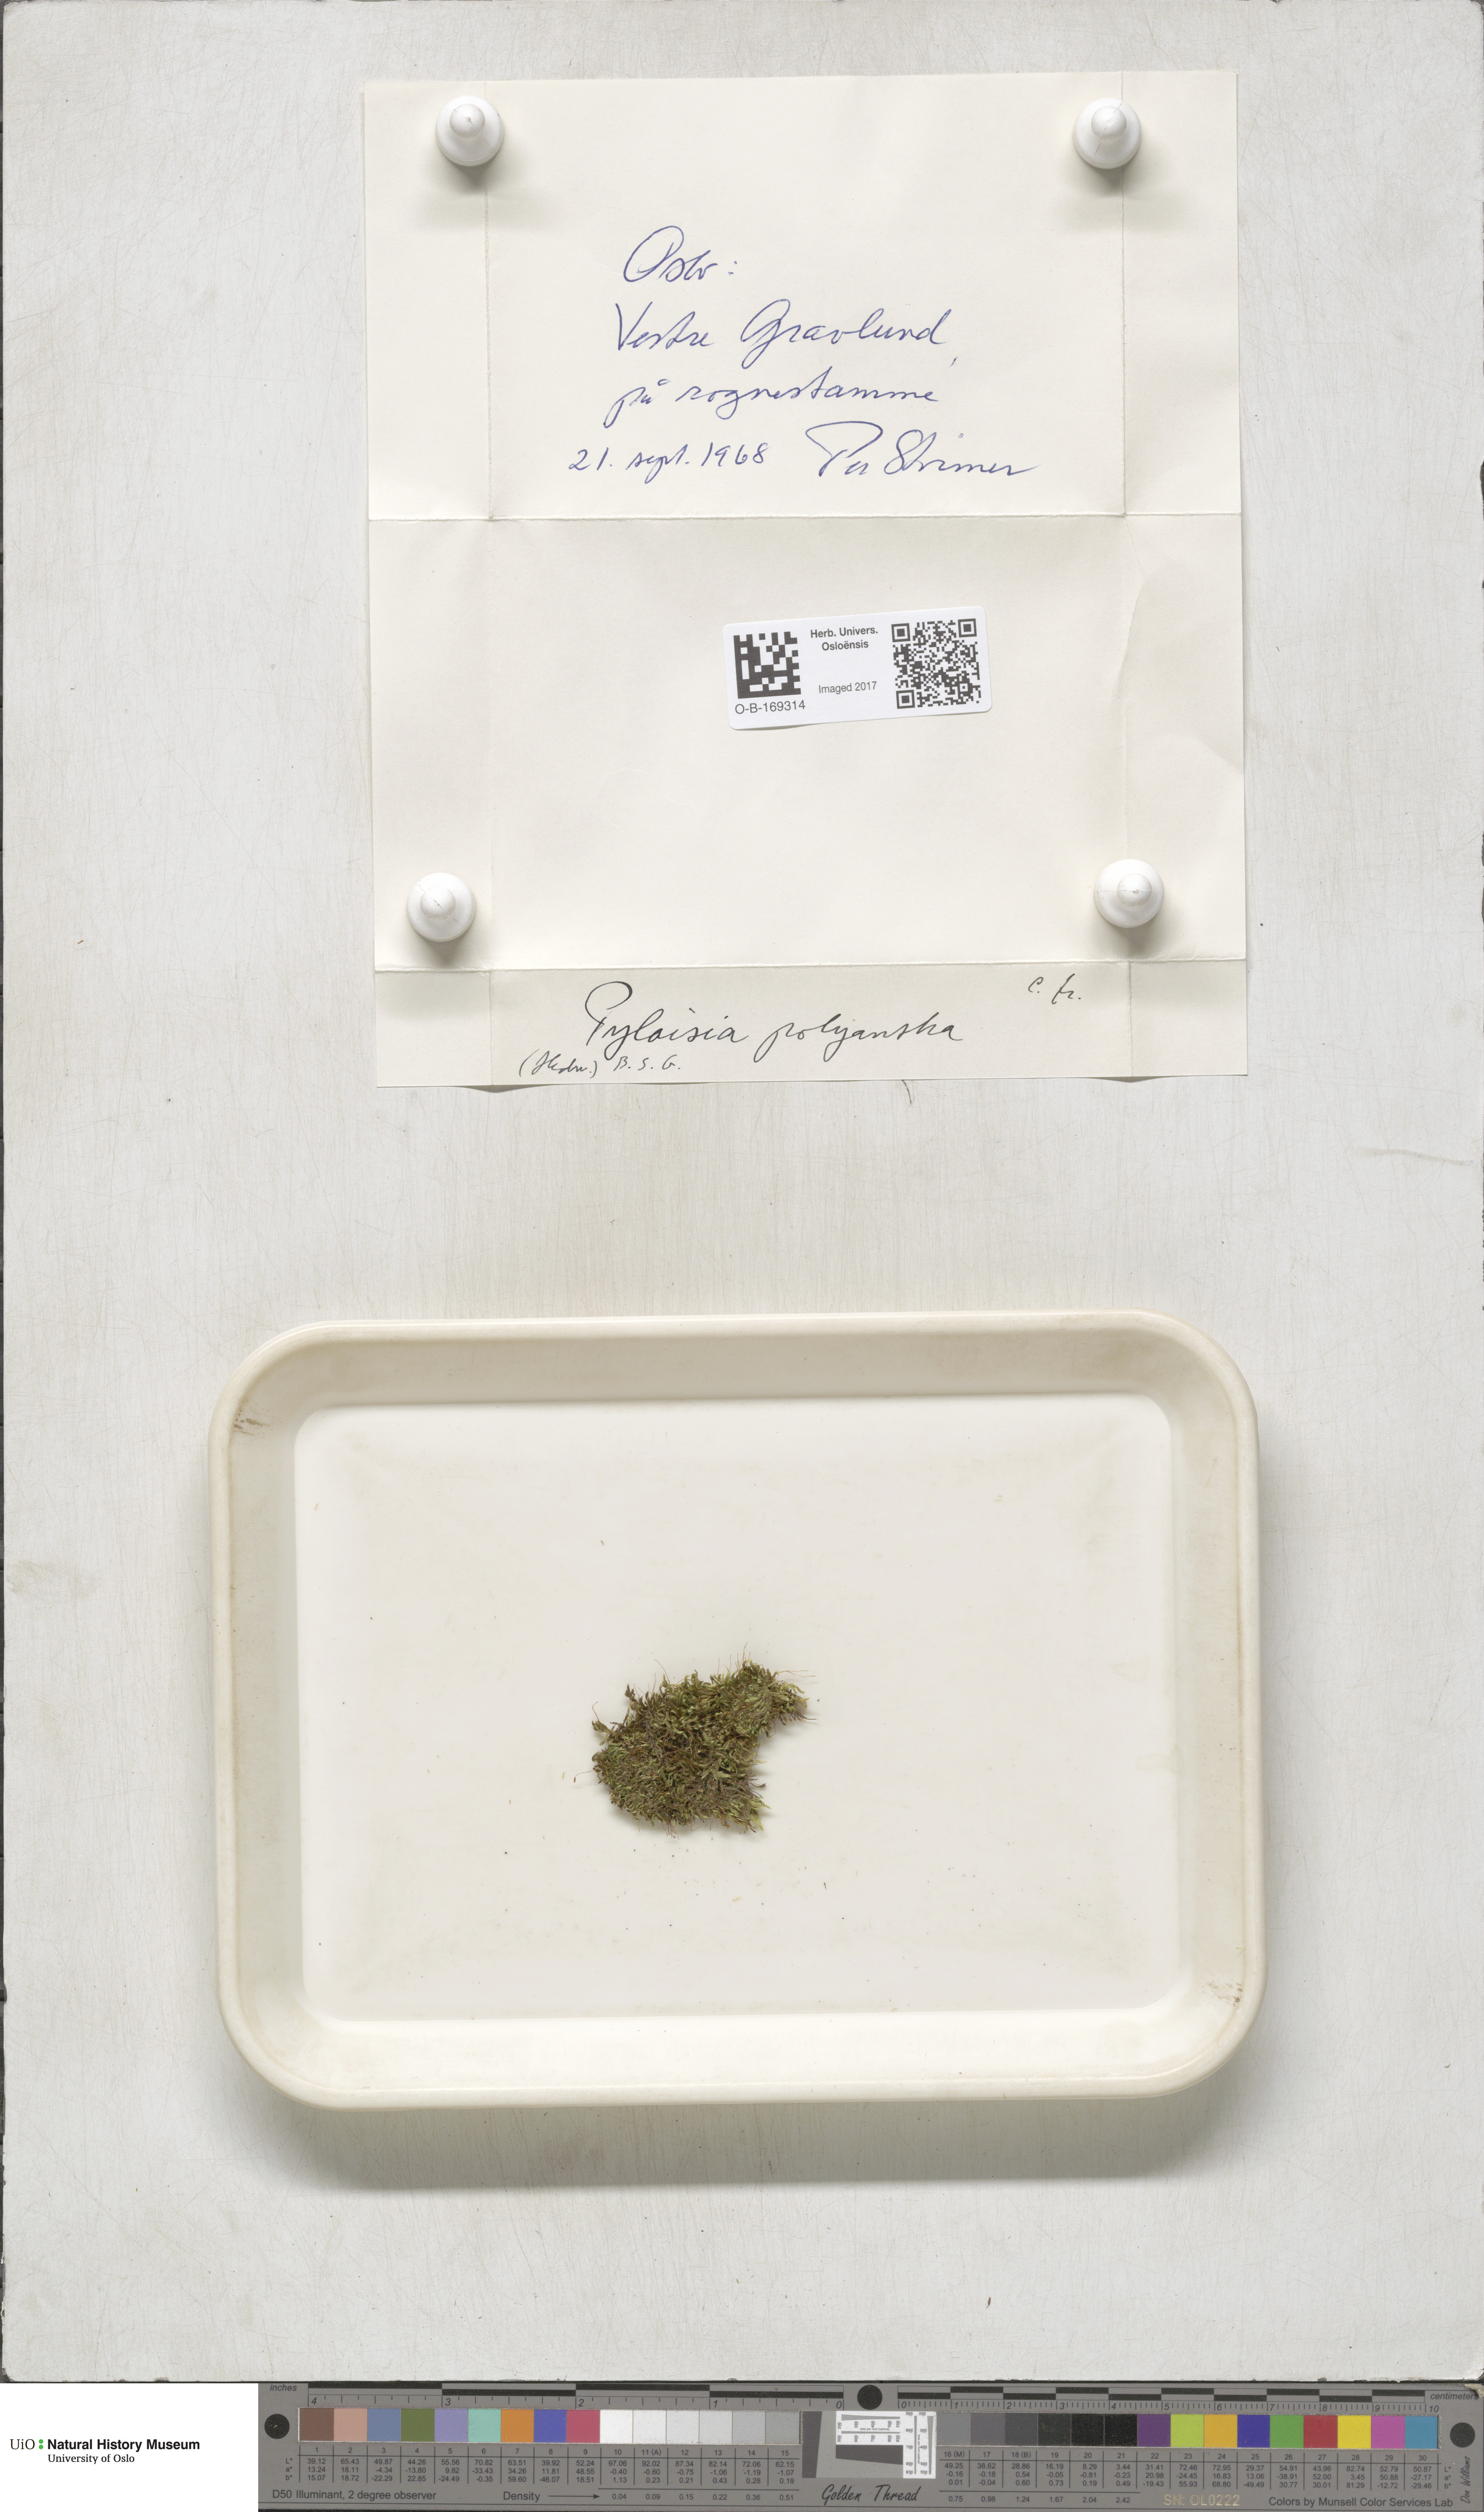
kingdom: Plantae
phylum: Bryophyta
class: Bryopsida
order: Hypnales
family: Pylaisiaceae
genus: Pylaisia
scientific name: Pylaisia polyantha
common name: Many-flowered leskea
